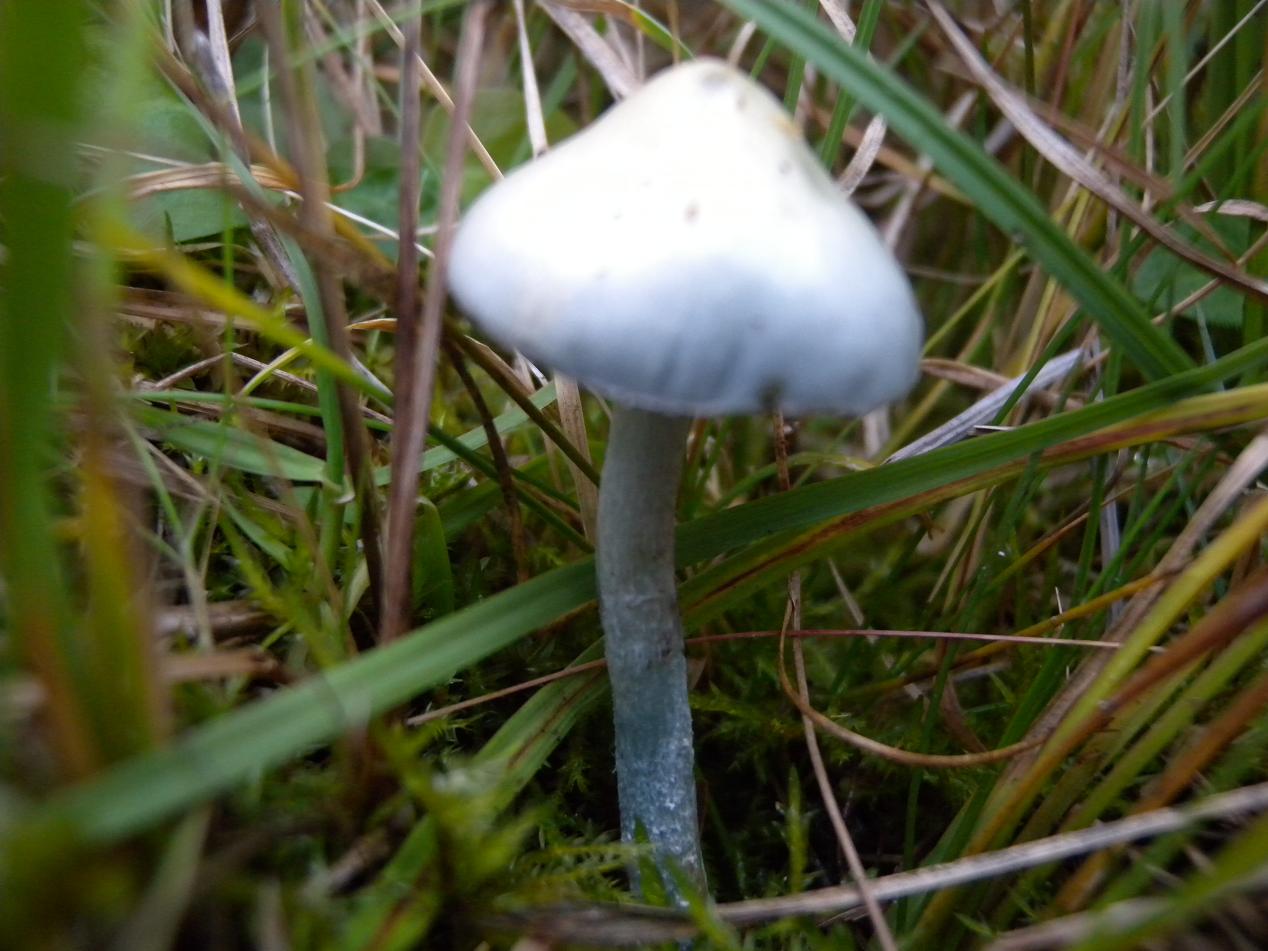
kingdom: Fungi
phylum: Basidiomycota
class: Agaricomycetes
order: Agaricales
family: Strophariaceae
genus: Stropharia
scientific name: Stropharia cyanea
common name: blågrøn bredblad
